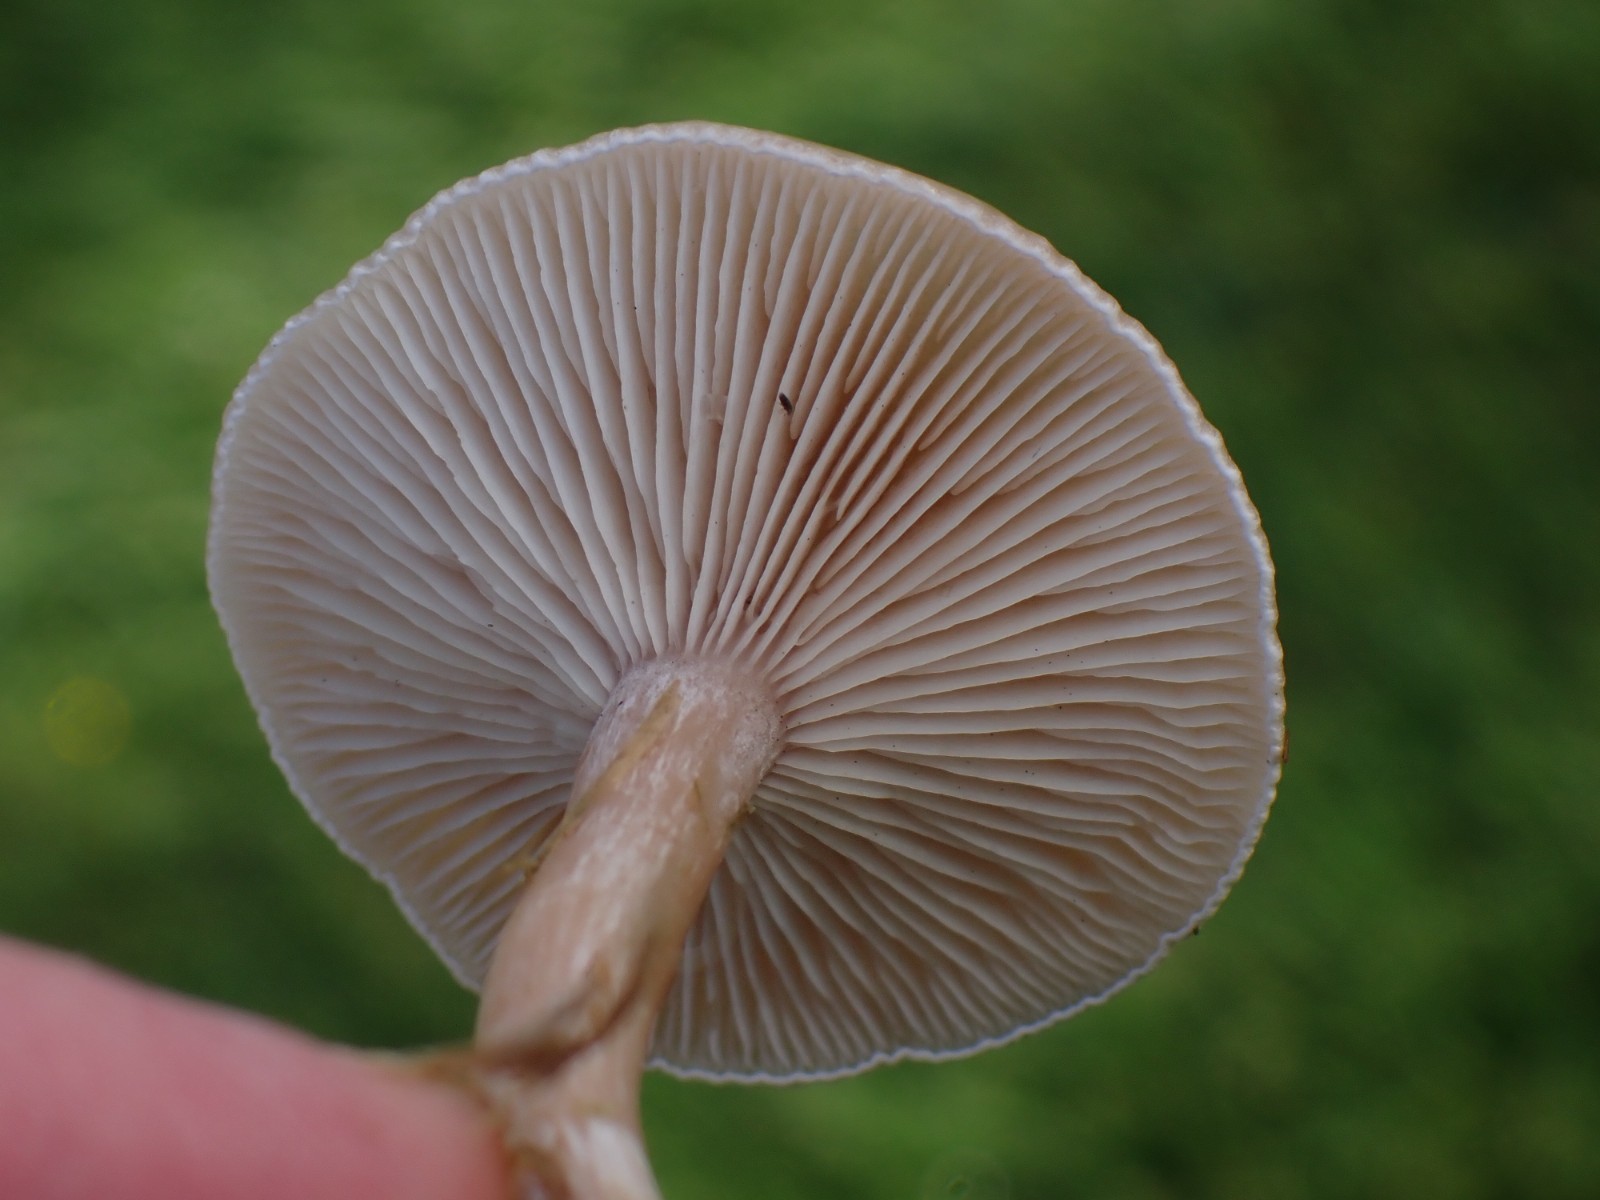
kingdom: Fungi
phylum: Basidiomycota
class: Agaricomycetes
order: Agaricales
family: Tricholomataceae
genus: Clitocybe
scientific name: Clitocybe
